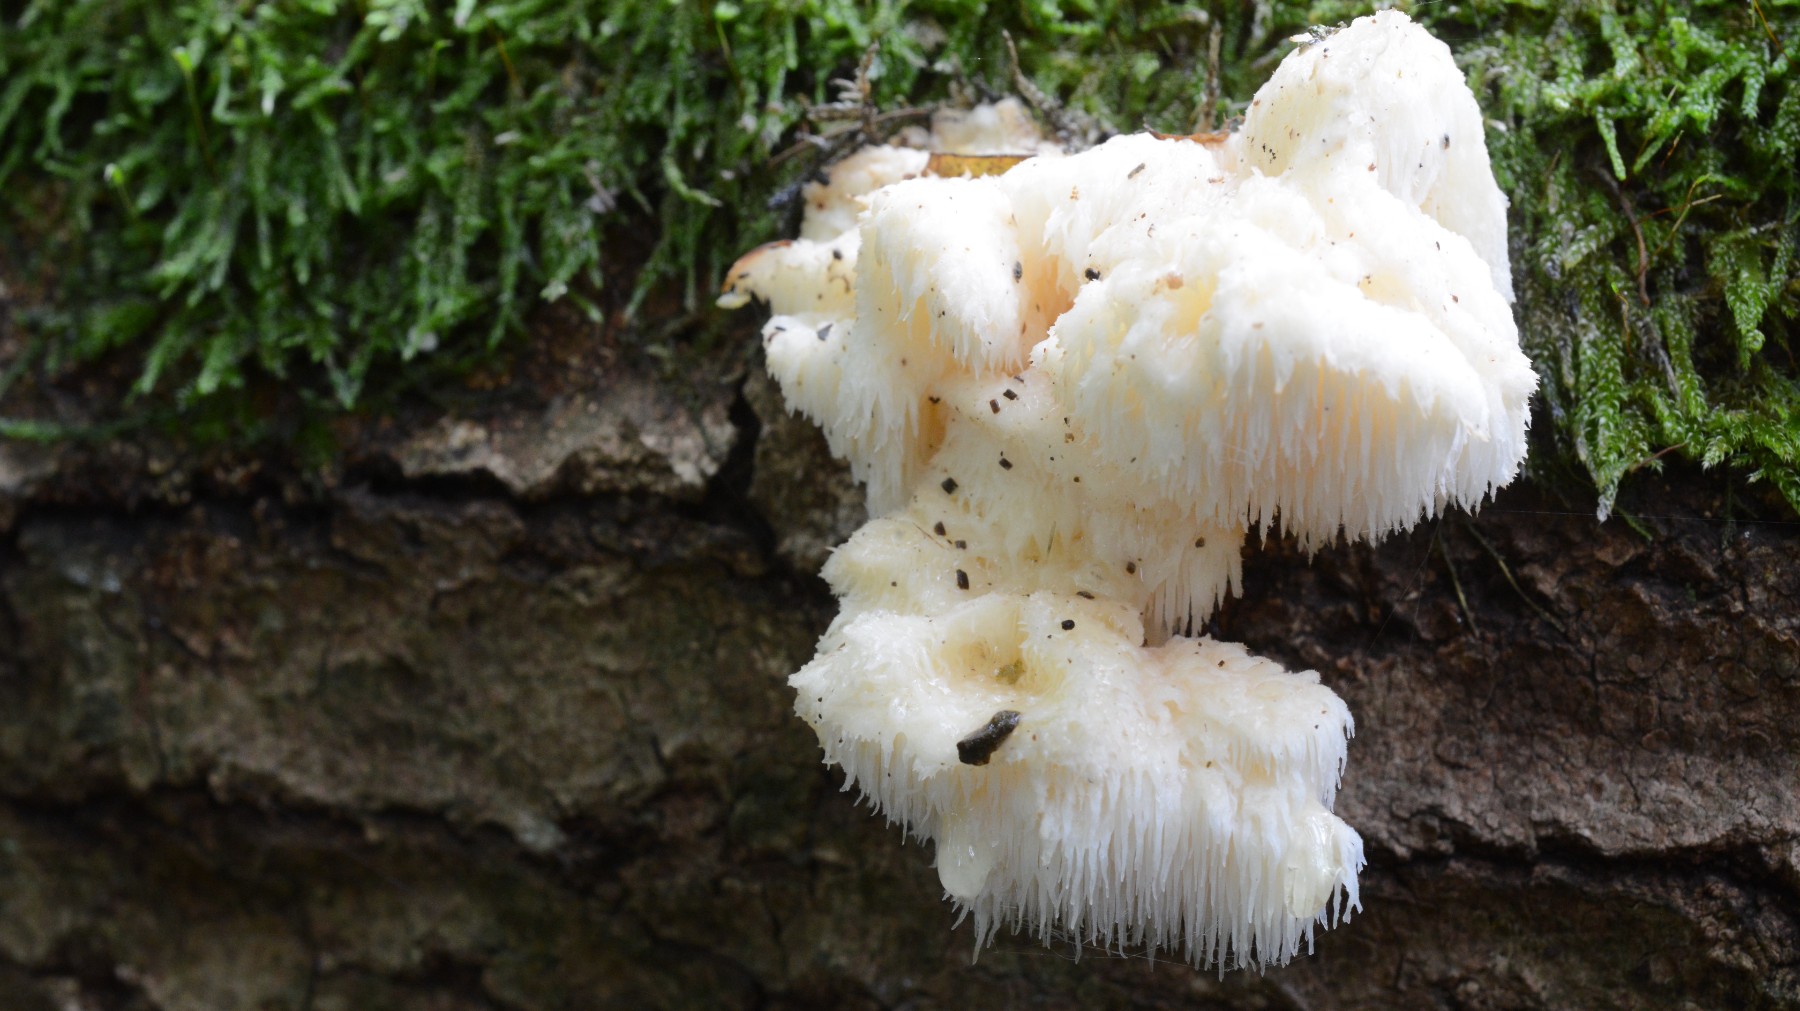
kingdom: Fungi
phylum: Basidiomycota
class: Agaricomycetes
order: Russulales
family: Hericiaceae
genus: Hericium
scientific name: Hericium cirrhatum
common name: børstepigsvamp
